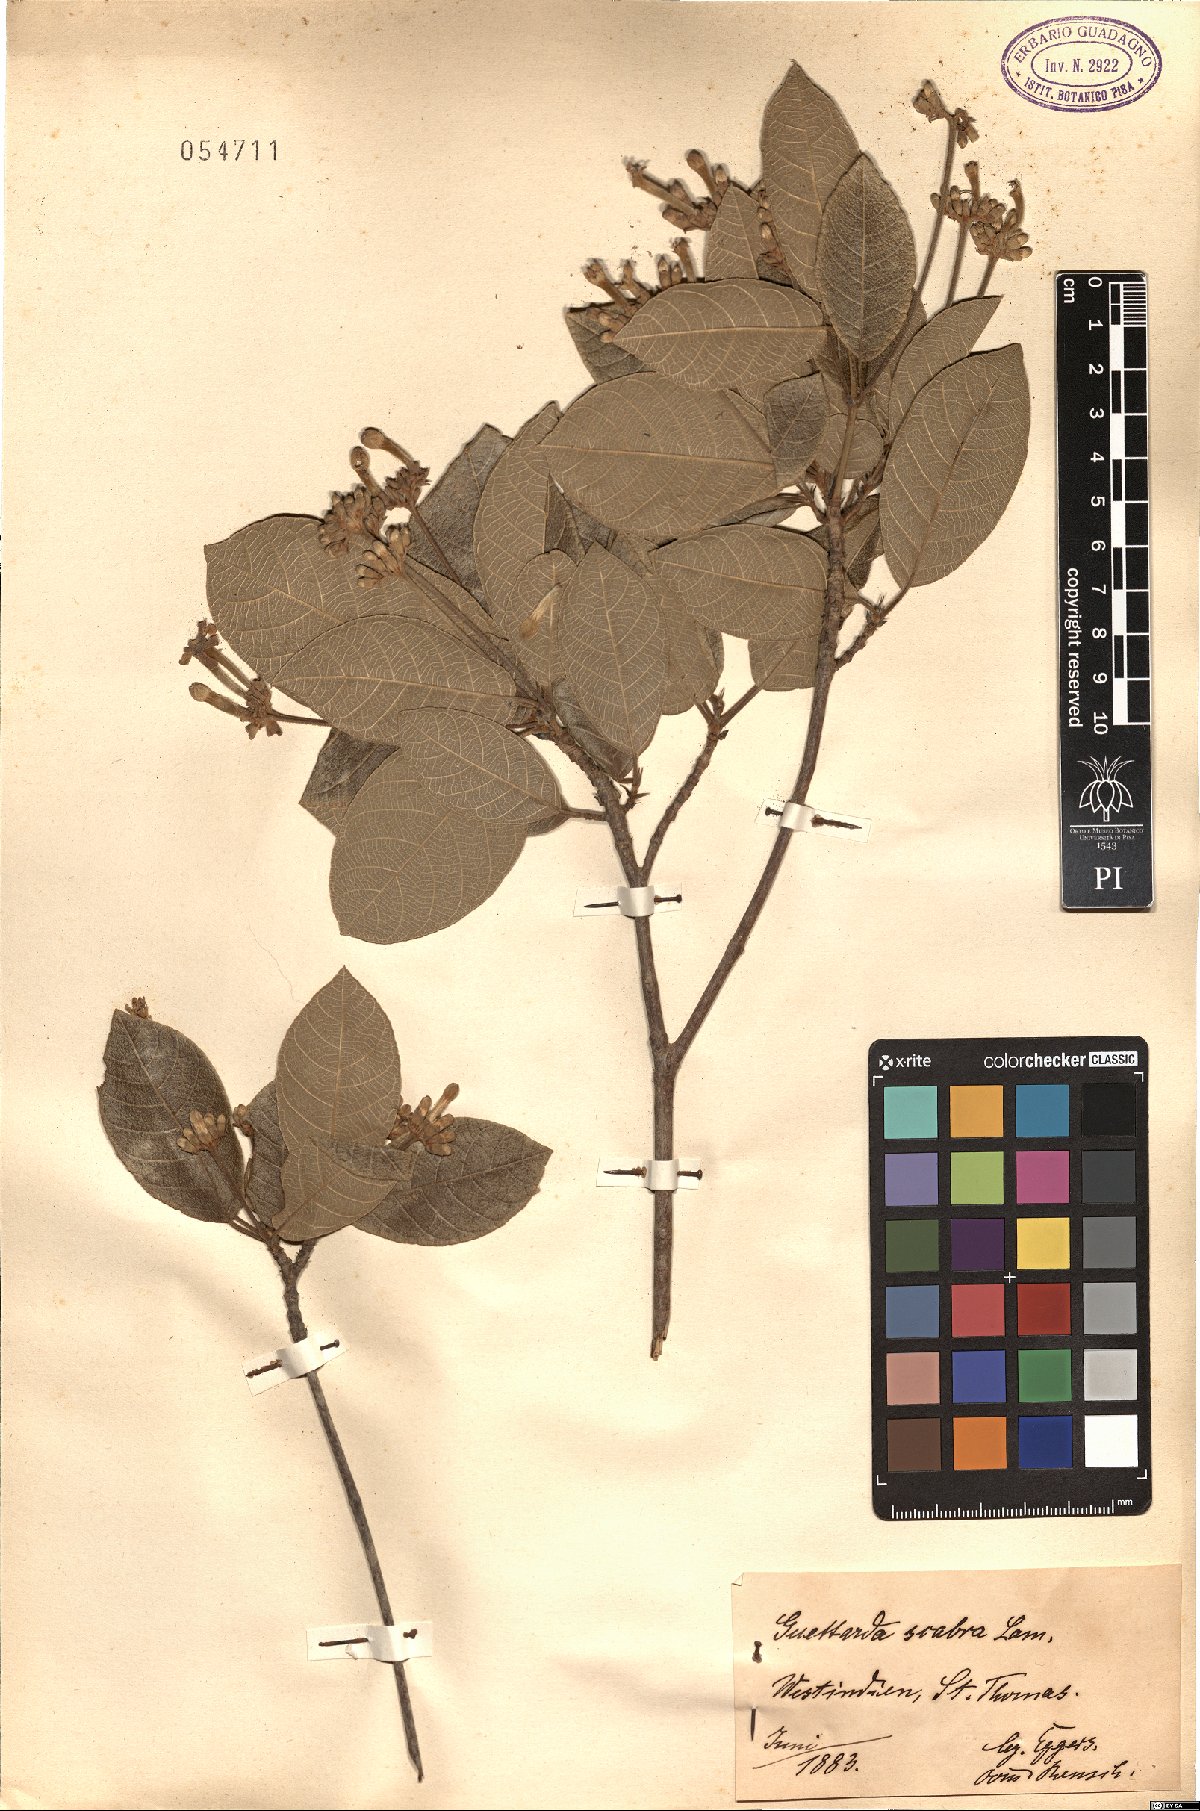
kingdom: Plantae
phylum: Tracheophyta
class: Magnoliopsida
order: Gentianales
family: Rubiaceae
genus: Guettarda
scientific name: Guettarda scabra
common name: Pigeon bay
